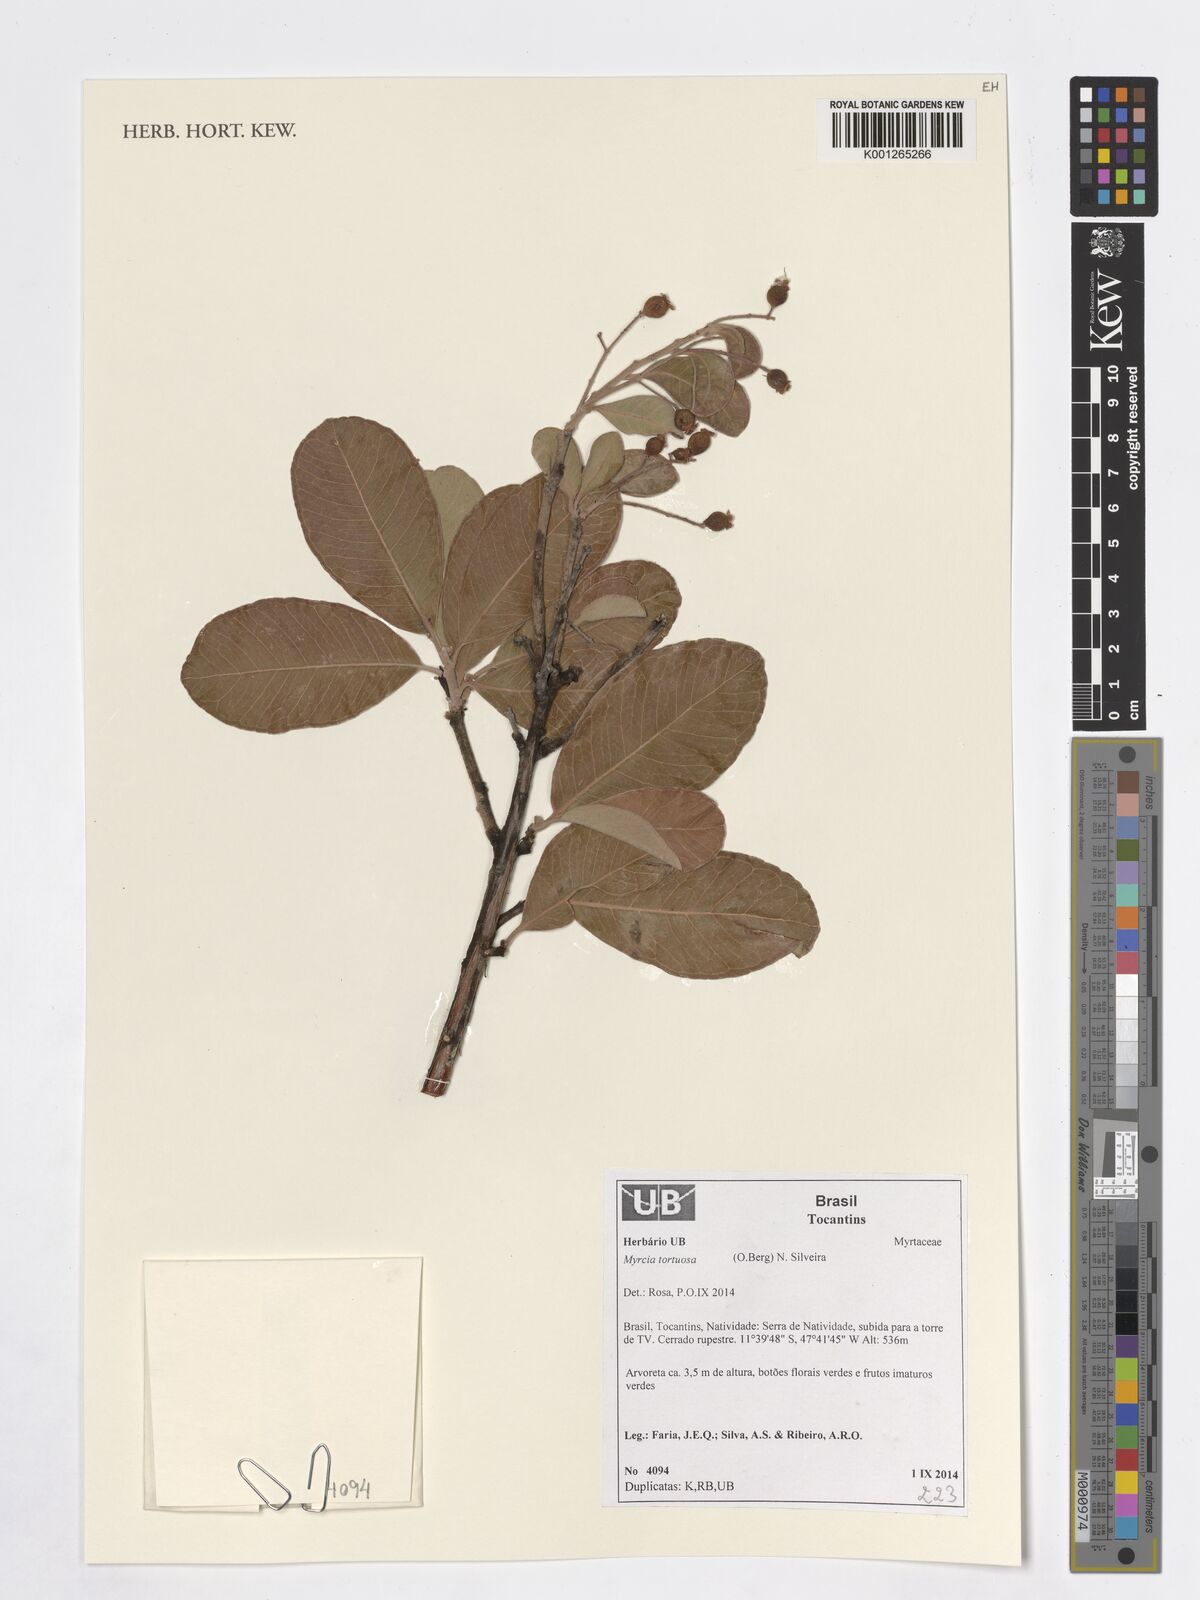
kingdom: Plantae
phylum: Tracheophyta
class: Magnoliopsida
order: Myrtales
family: Myrtaceae
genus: Myrcia
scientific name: Myrcia tortuosa
